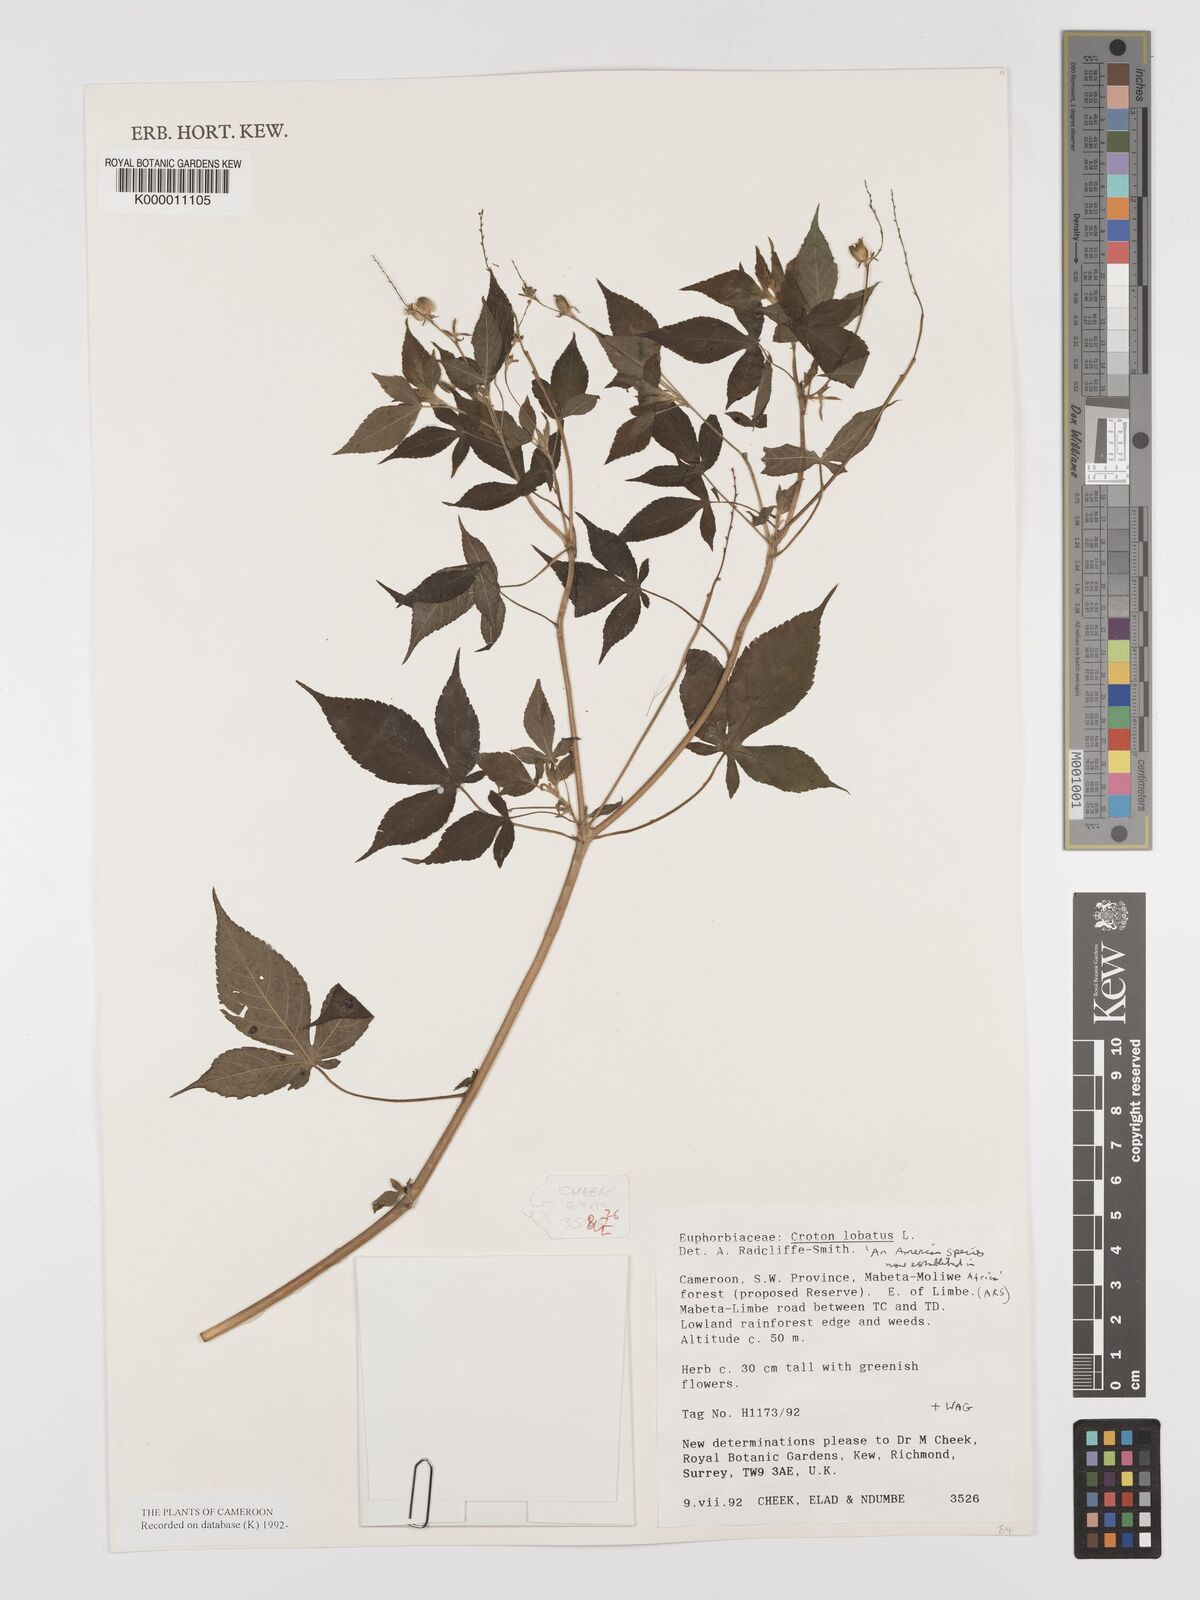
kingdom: Plantae
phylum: Tracheophyta
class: Magnoliopsida
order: Malpighiales
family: Euphorbiaceae
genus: Astraea
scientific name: Astraea lobata
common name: Lobed croton
